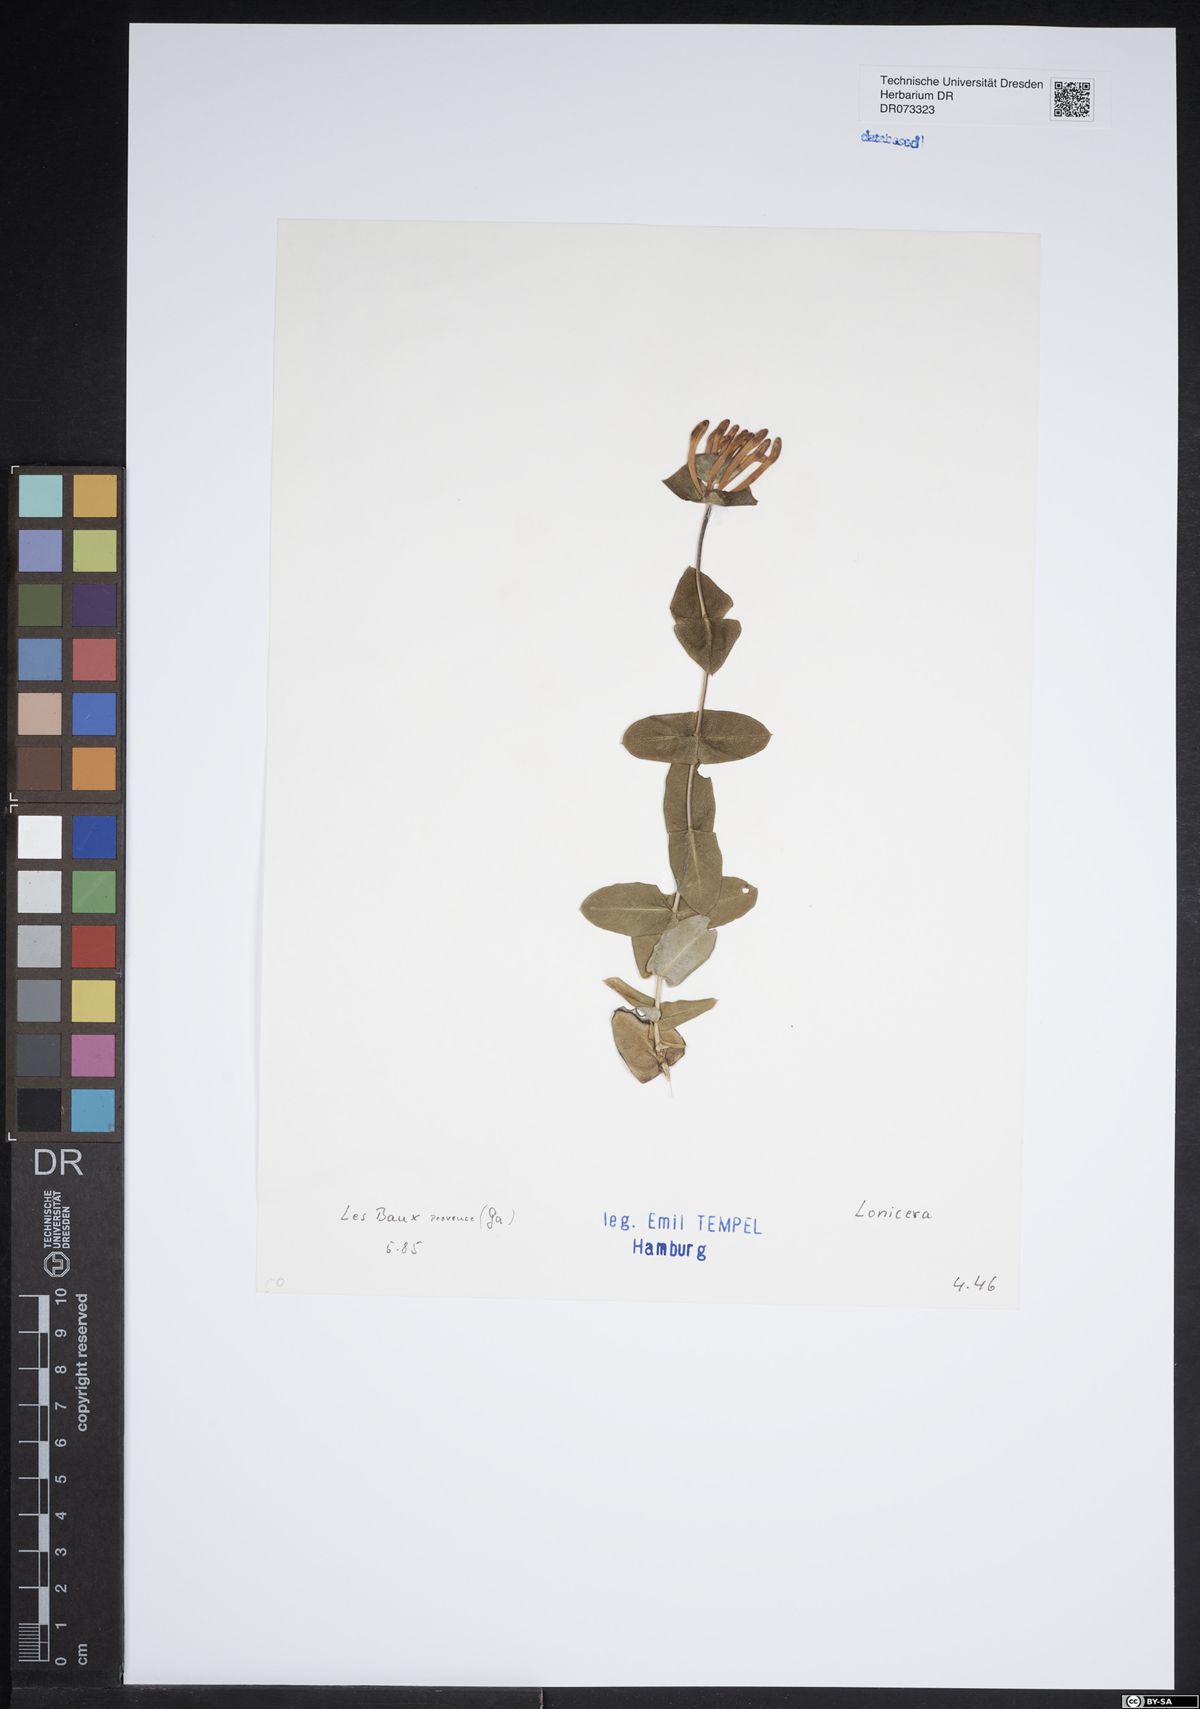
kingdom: Plantae
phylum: Tracheophyta
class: Magnoliopsida
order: Dipsacales
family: Caprifoliaceae
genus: Lonicera
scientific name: Lonicera
